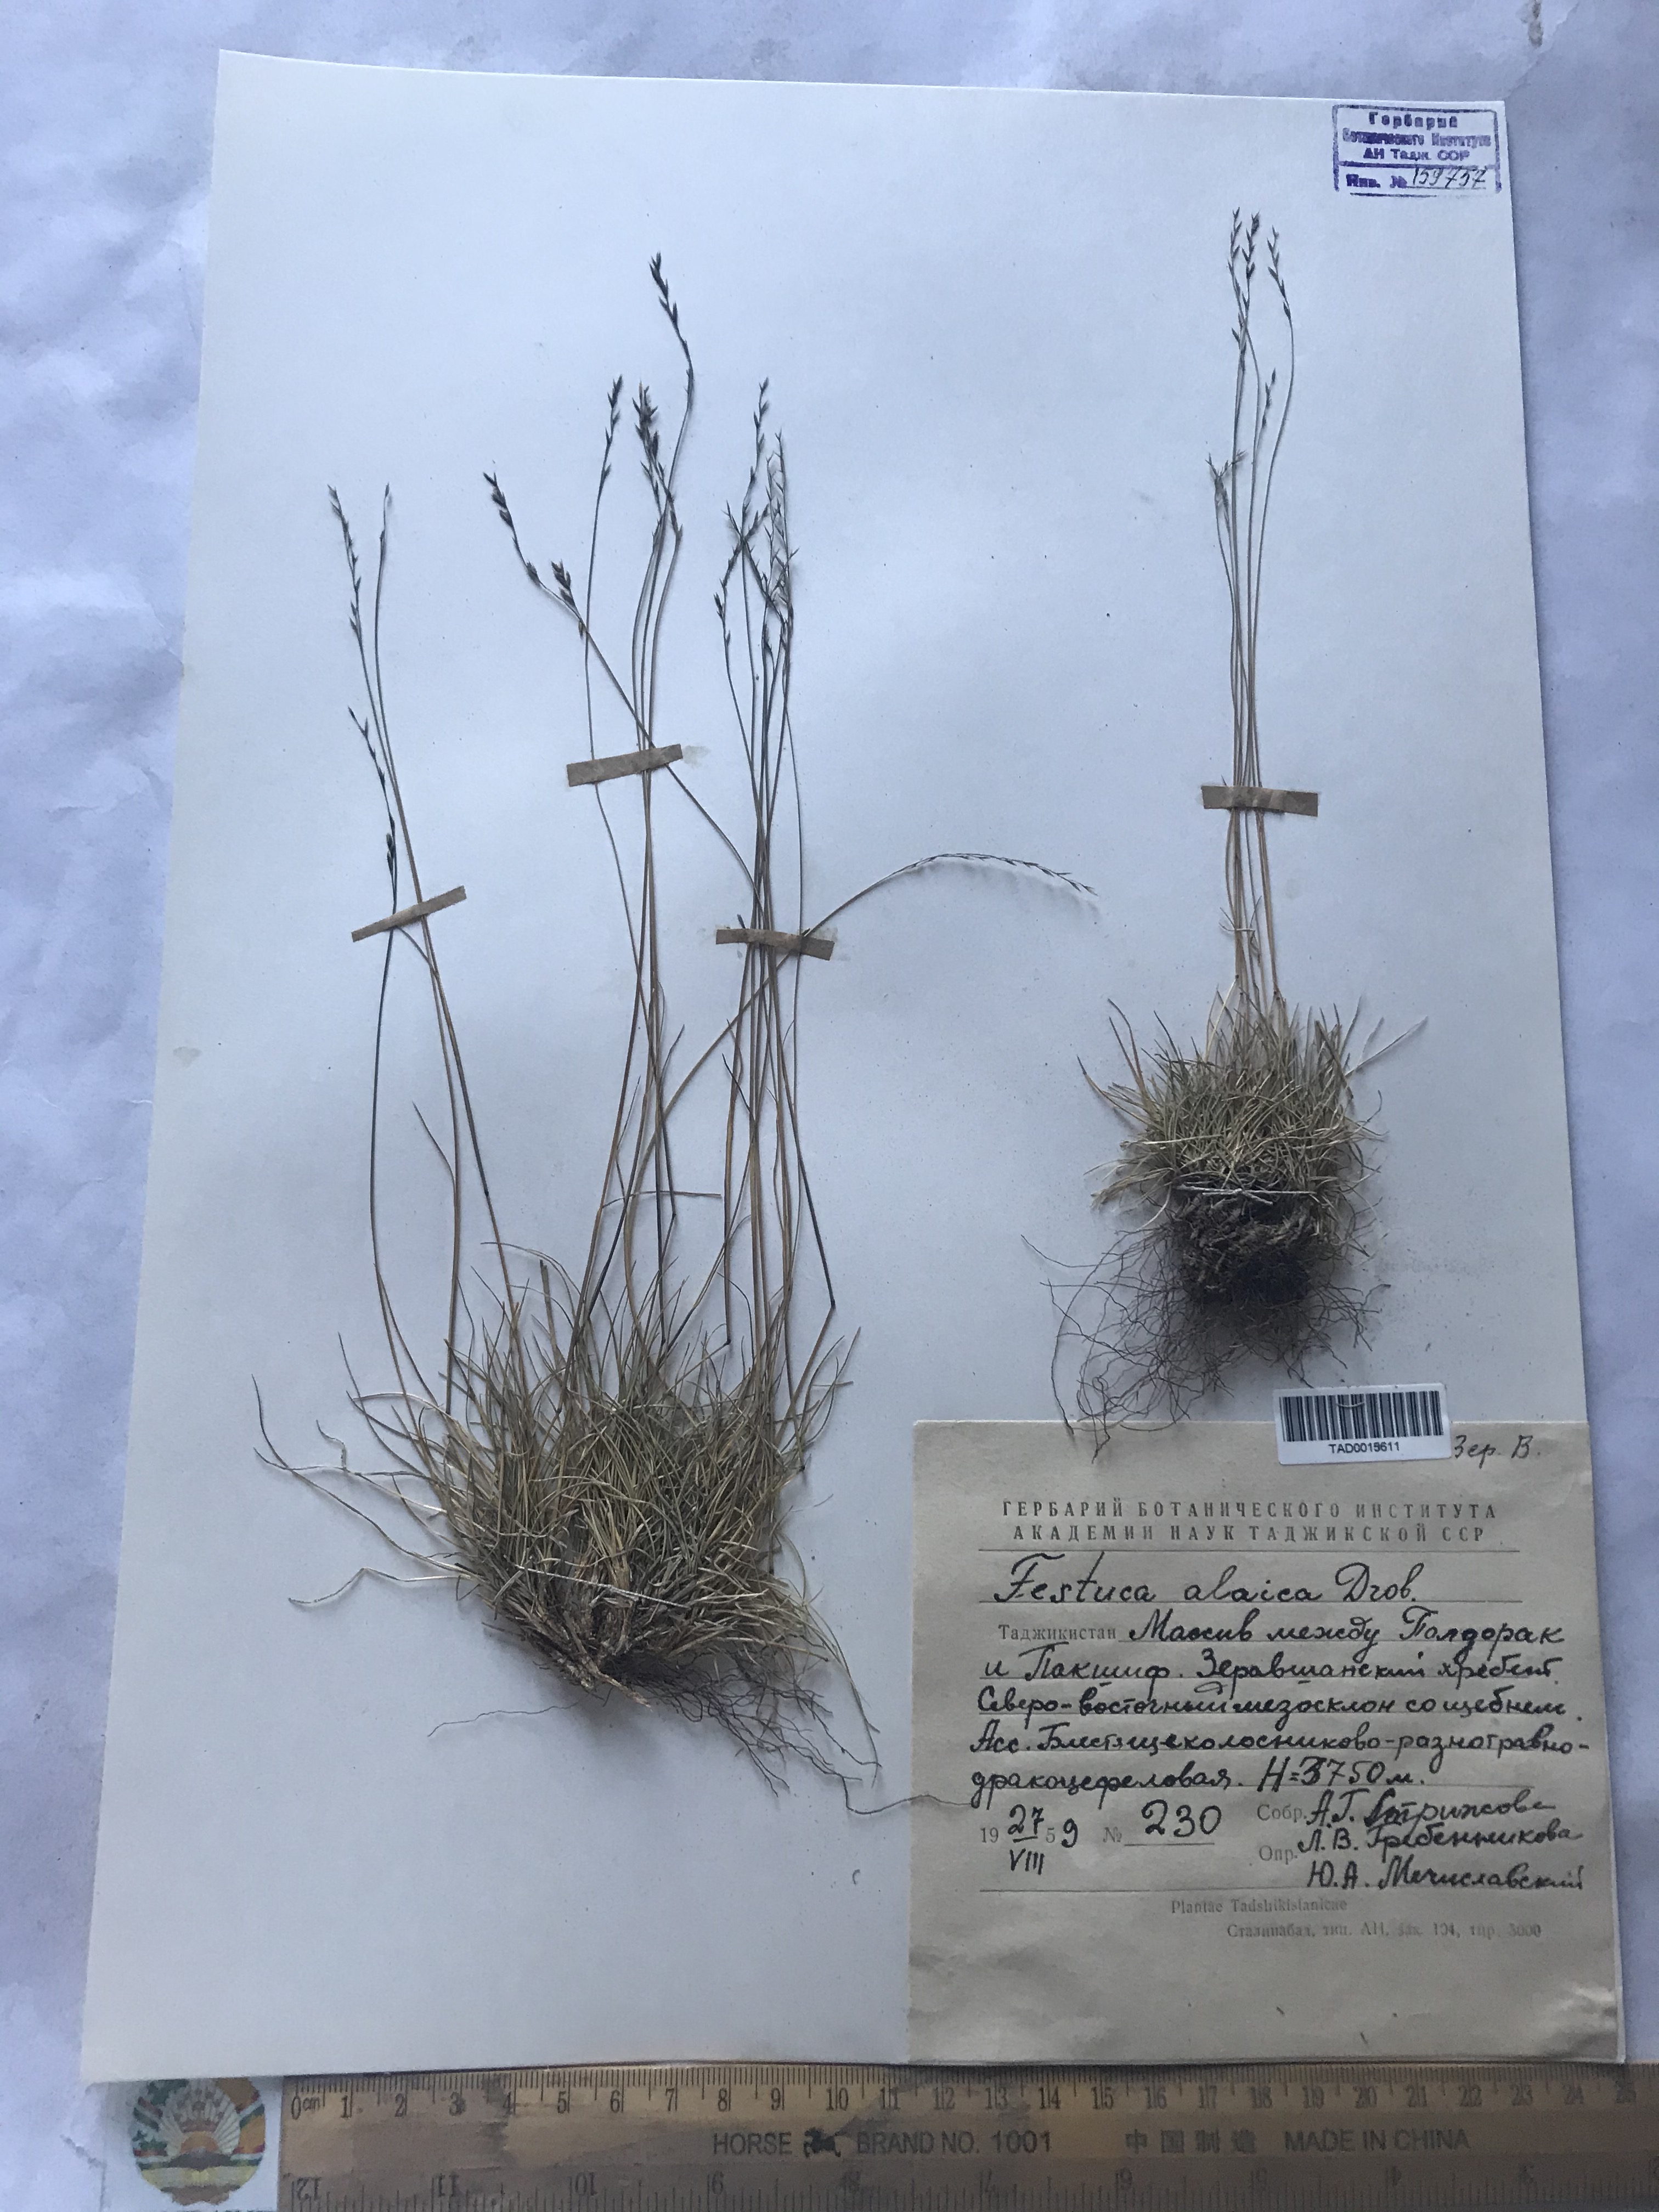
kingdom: Plantae
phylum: Tracheophyta
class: Liliopsida
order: Poales
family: Poaceae
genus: Festuca
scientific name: Festuca alaica
